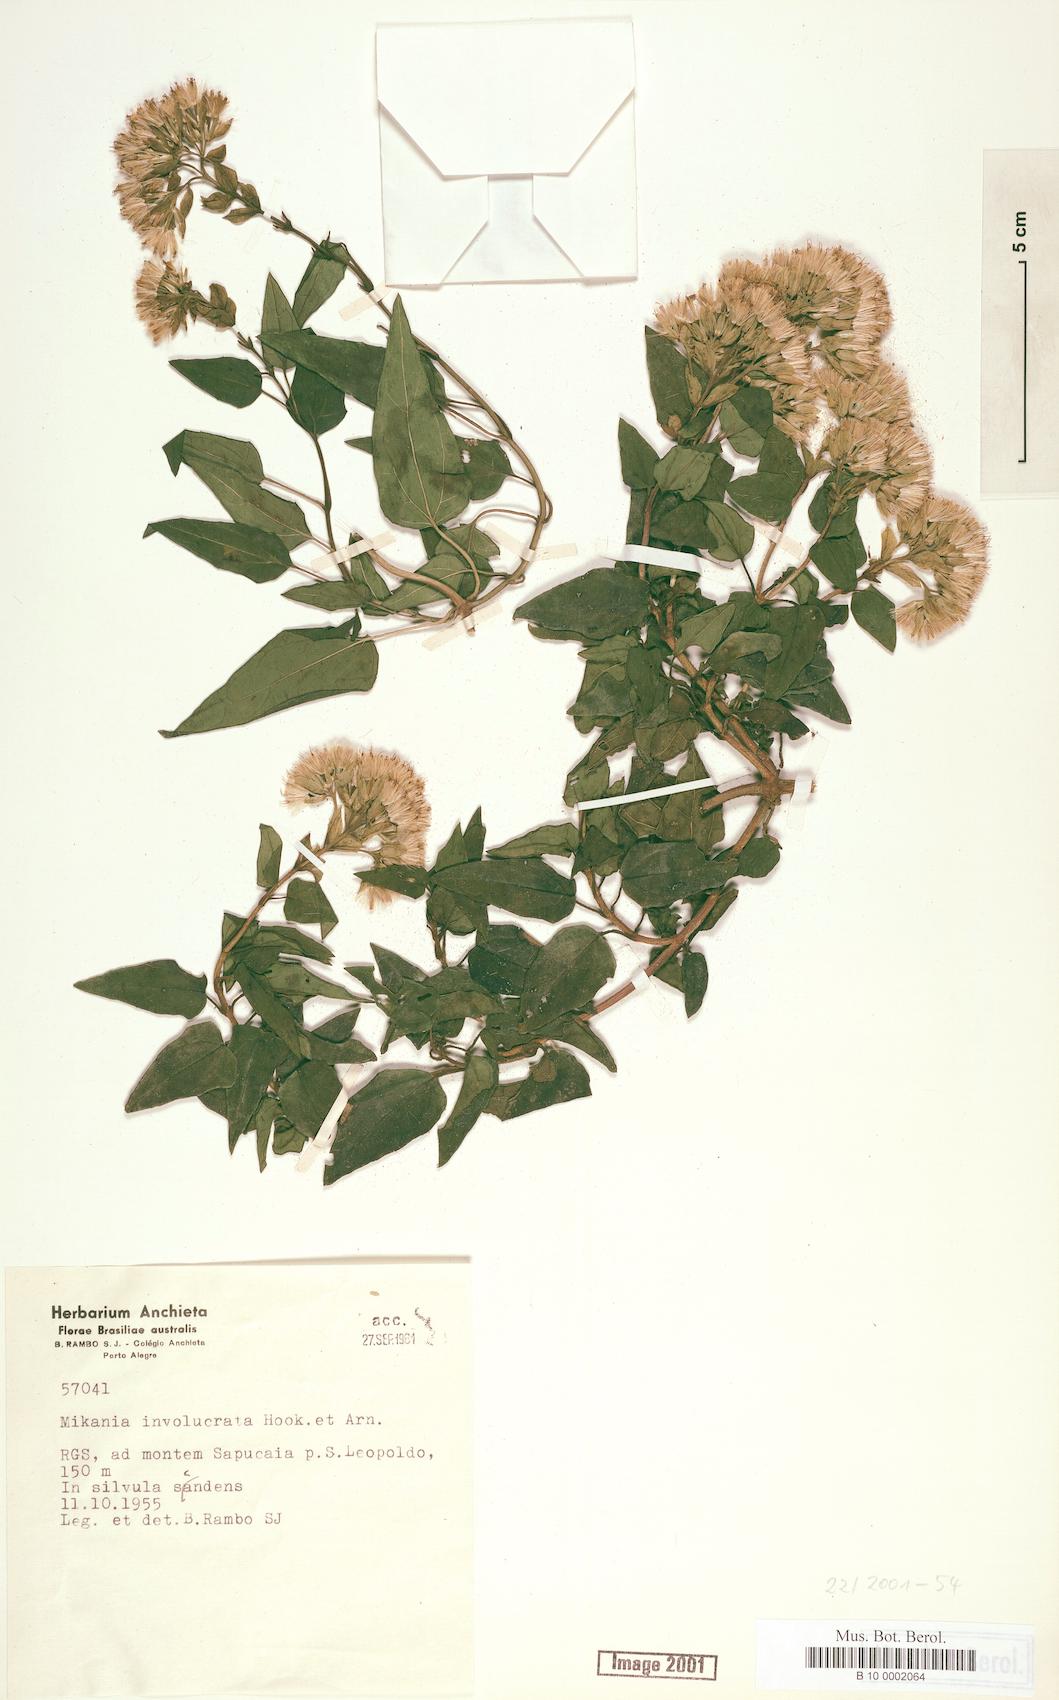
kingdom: Plantae
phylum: Tracheophyta
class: Magnoliopsida
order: Asterales
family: Asteraceae
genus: Mikania
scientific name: Mikania involucrata
